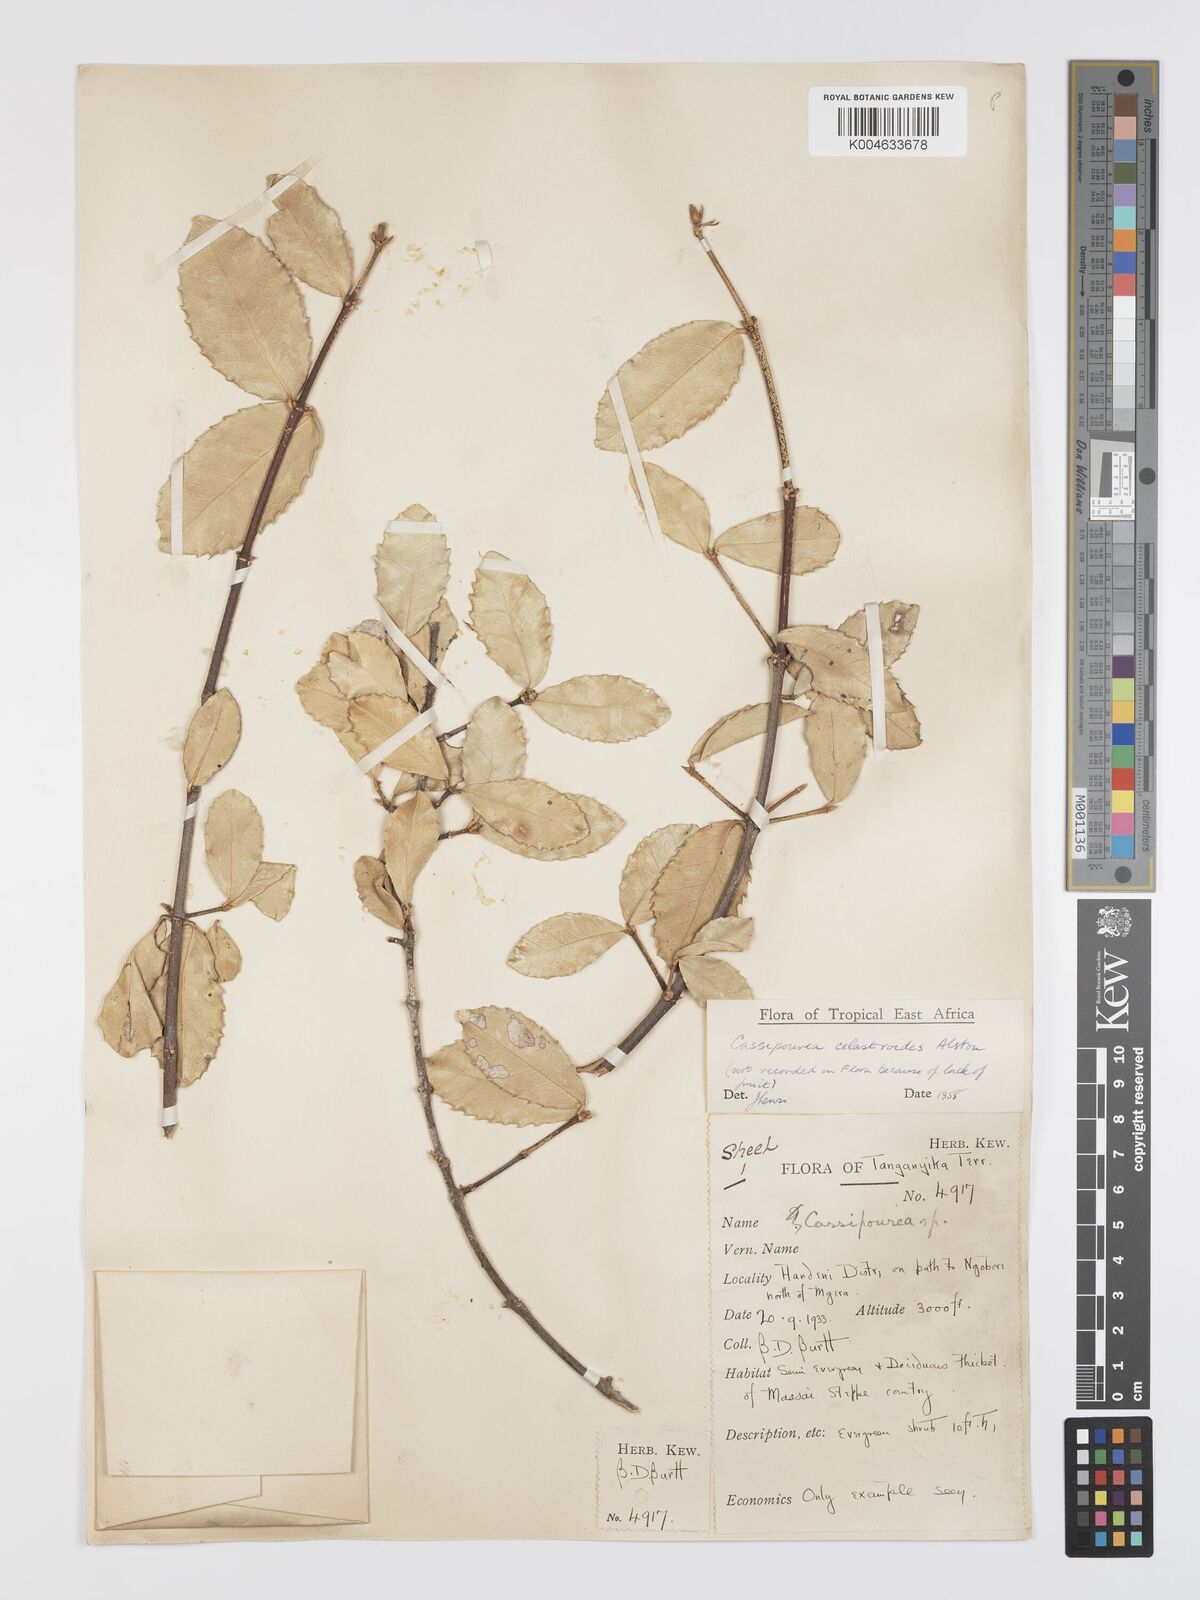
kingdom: Plantae
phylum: Tracheophyta
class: Magnoliopsida
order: Malpighiales
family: Rhizophoraceae
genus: Cassipourea
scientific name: Cassipourea celastroides
